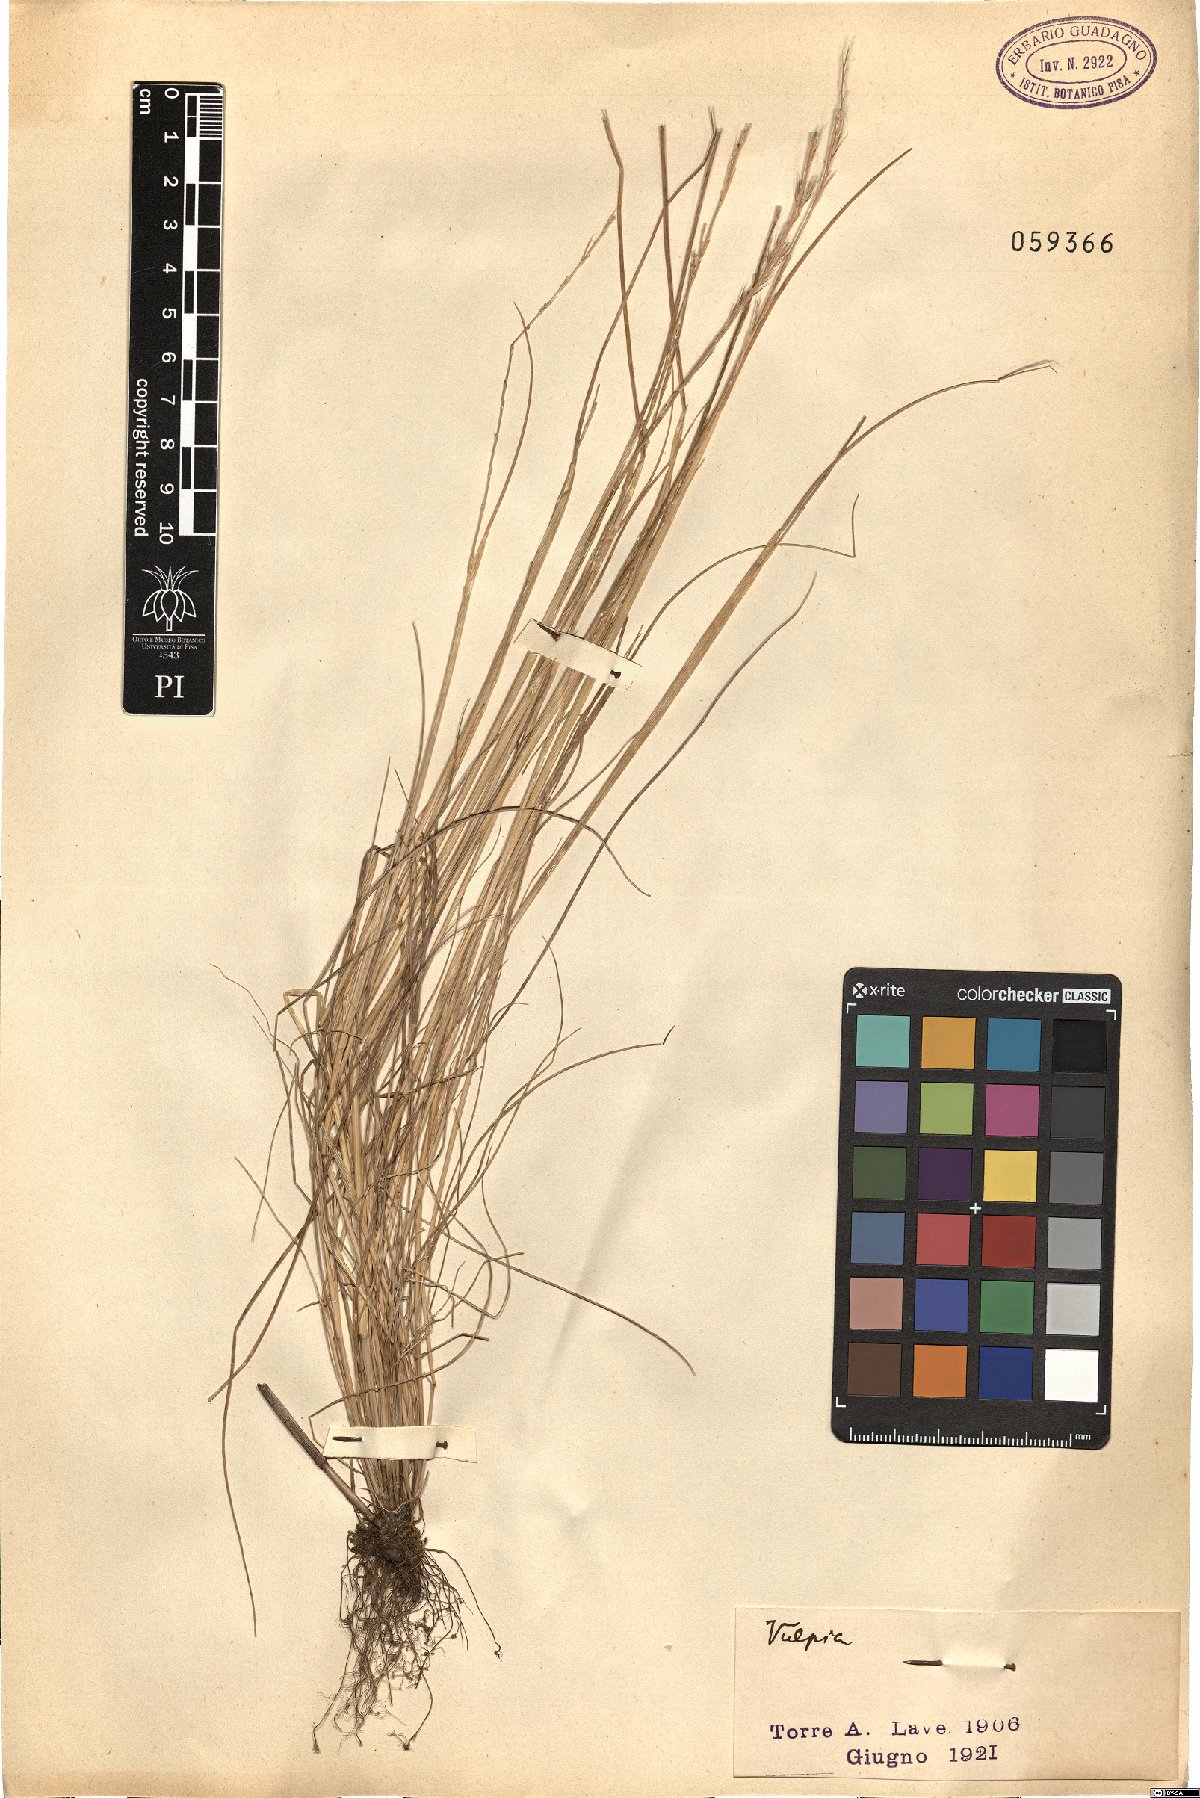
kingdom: Plantae
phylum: Tracheophyta
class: Liliopsida
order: Poales
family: Poaceae
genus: Festuca
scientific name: Festuca
